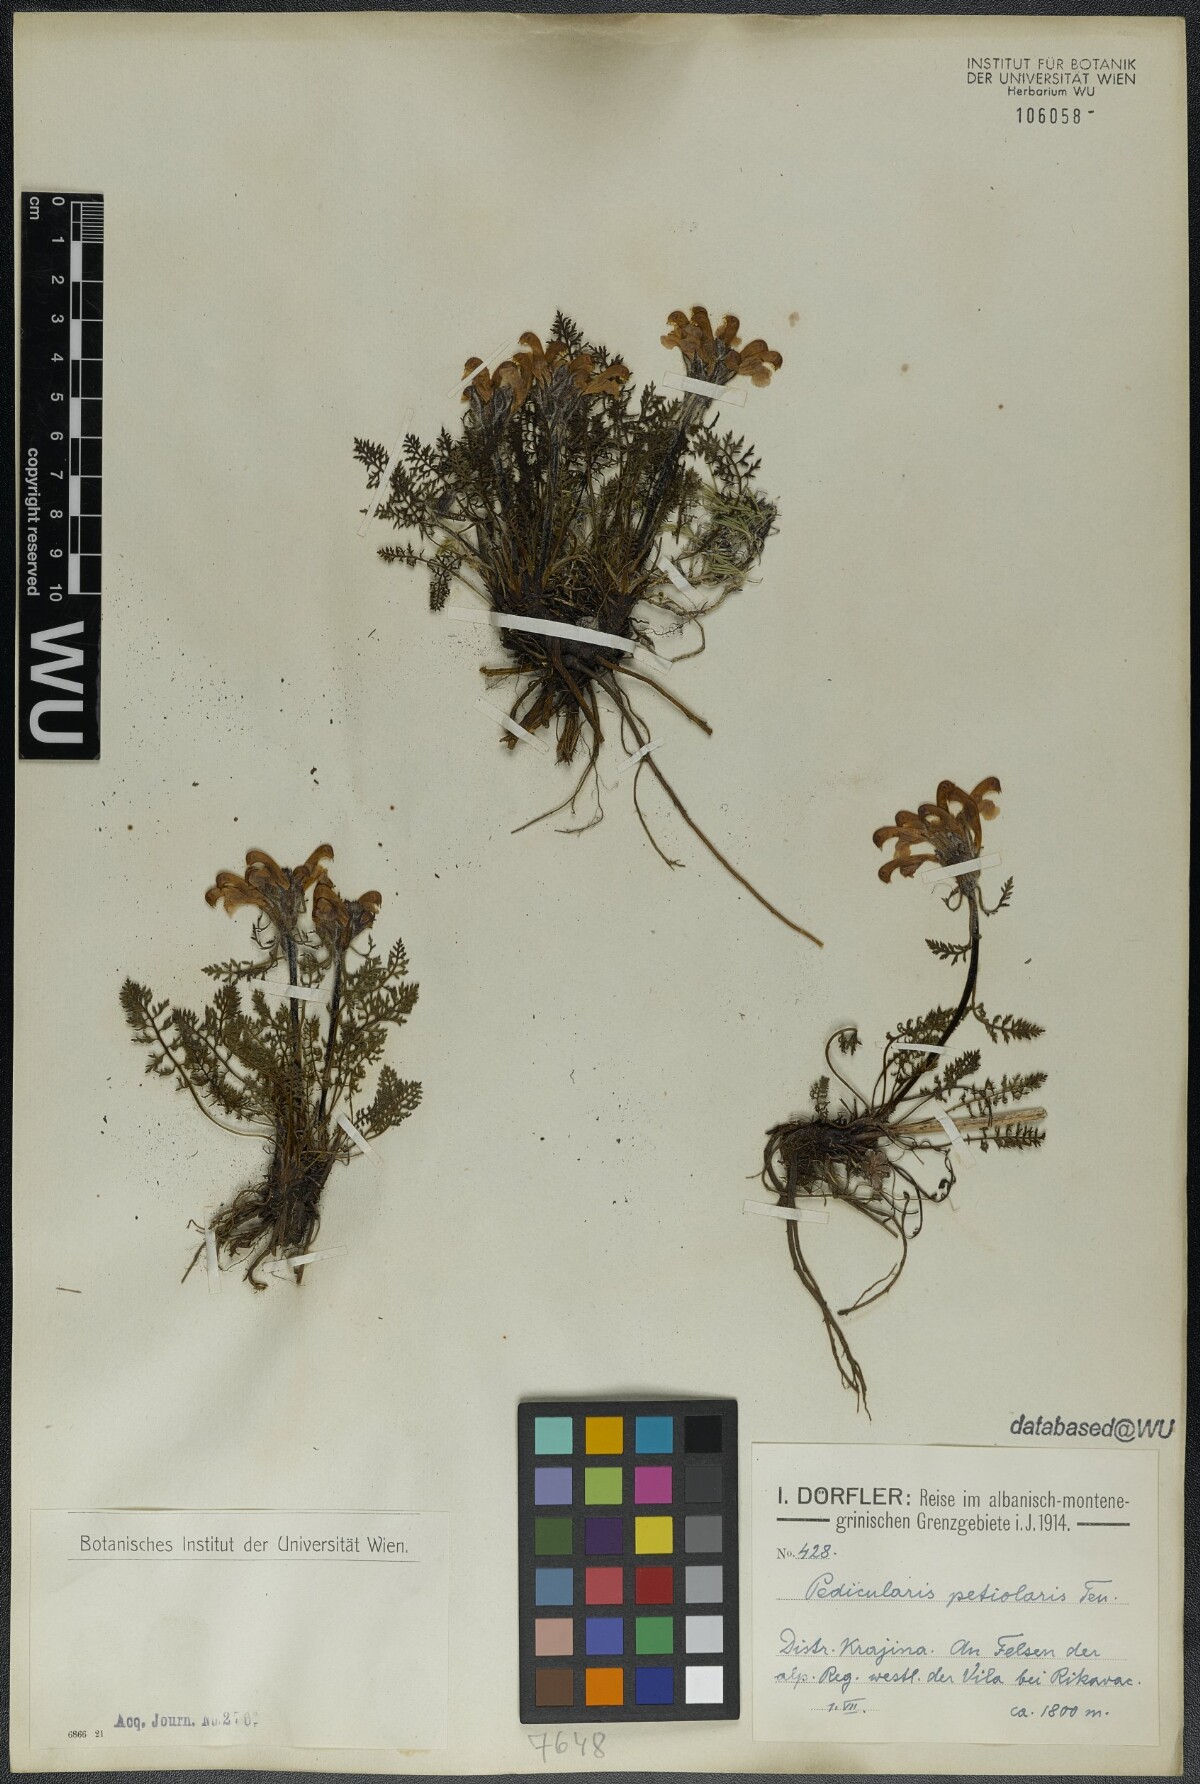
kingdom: Plantae
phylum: Tracheophyta
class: Magnoliopsida
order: Lamiales
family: Orobanchaceae
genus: Pedicularis
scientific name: Pedicularis petiolaris
